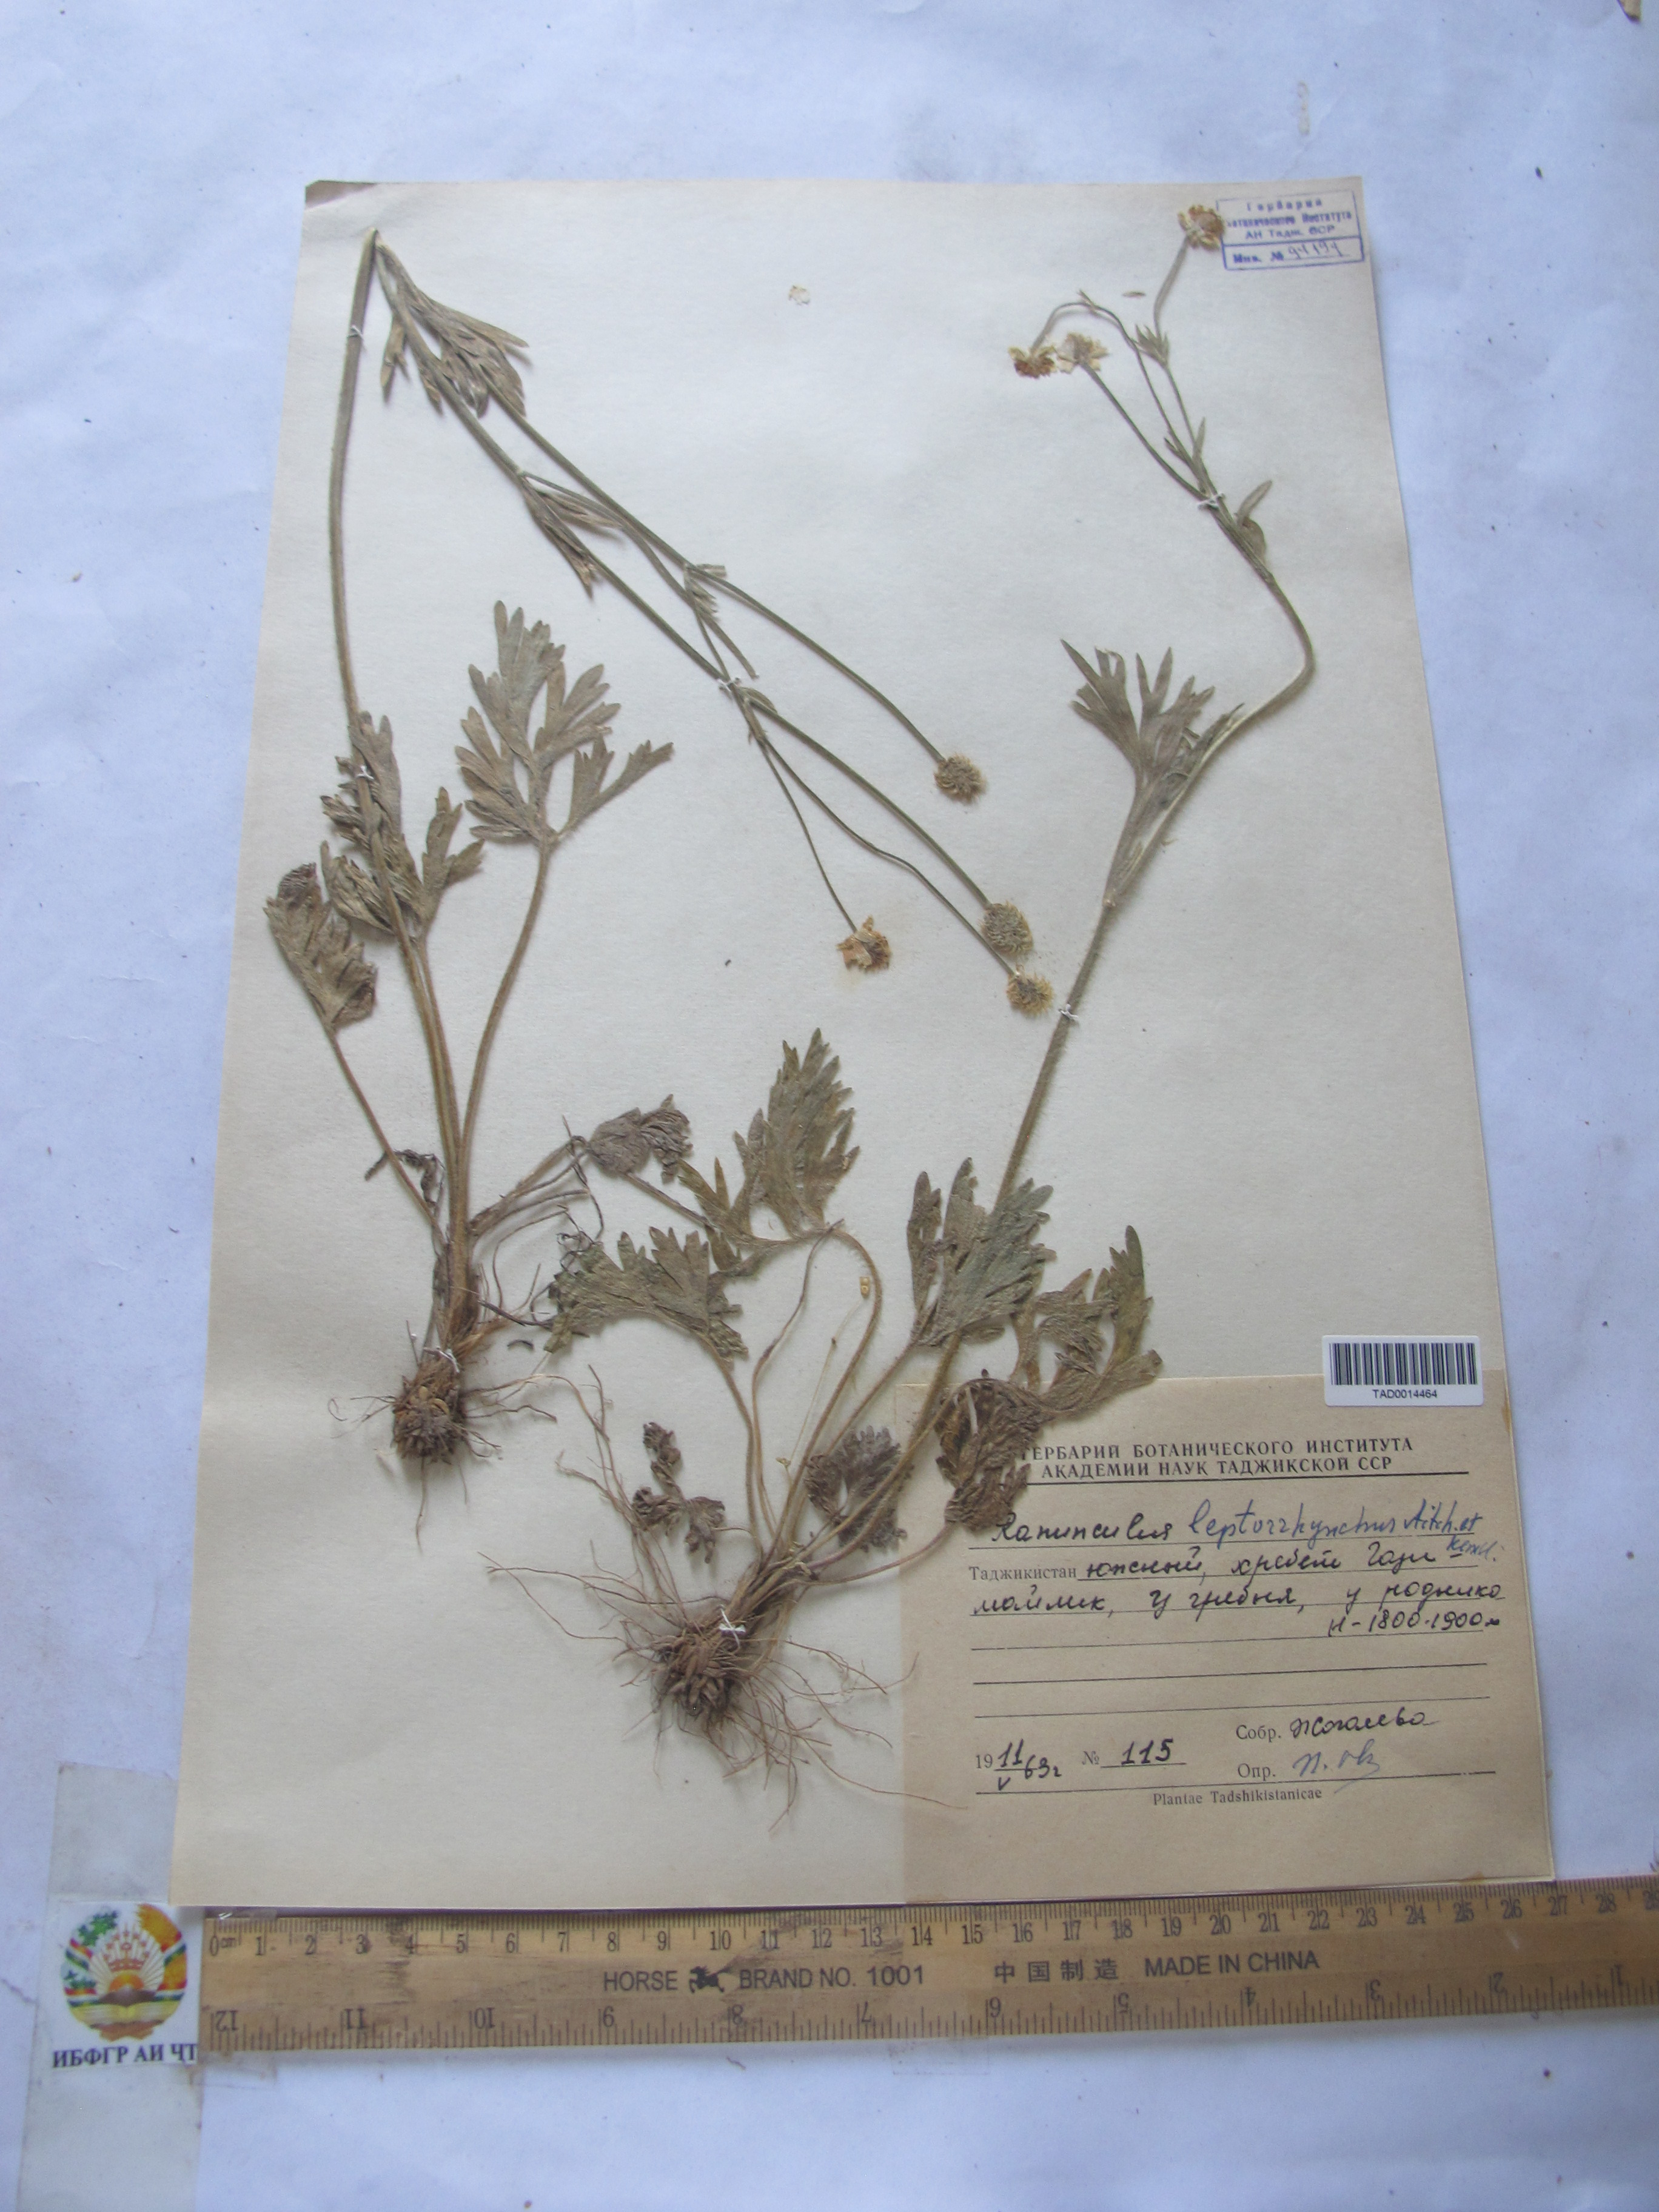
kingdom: Plantae
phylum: Tracheophyta
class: Magnoliopsida
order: Ranunculales
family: Ranunculaceae
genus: Ranunculus
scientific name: Ranunculus leptorrhynchus
